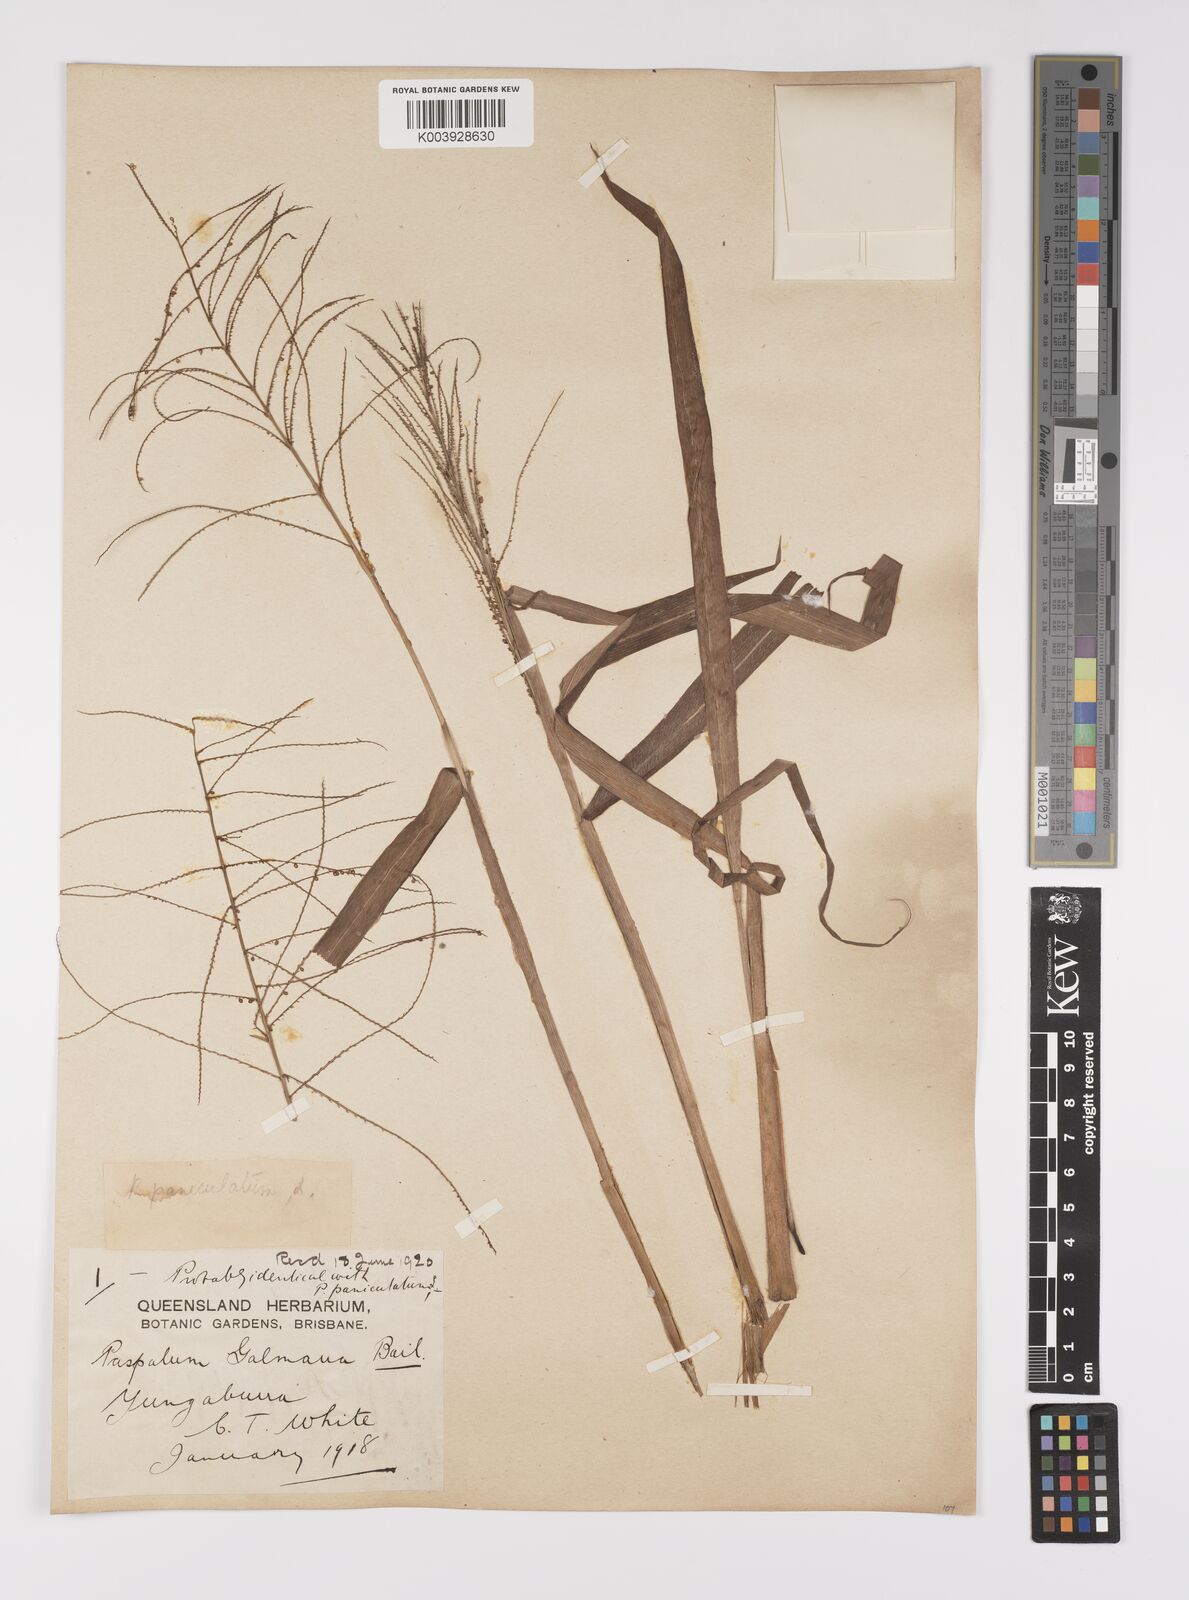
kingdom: Plantae
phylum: Tracheophyta
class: Liliopsida
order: Poales
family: Poaceae
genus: Paspalum
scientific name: Paspalum paniculatum
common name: Arrocillo
